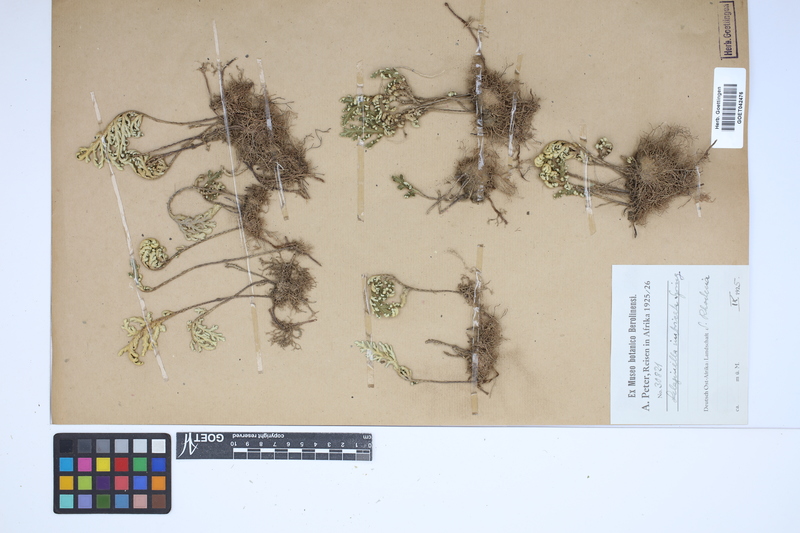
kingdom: Plantae
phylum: Tracheophyta
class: Lycopodiopsida
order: Selaginellales
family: Selaginellaceae
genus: Selaginella
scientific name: Selaginella bryopteris
